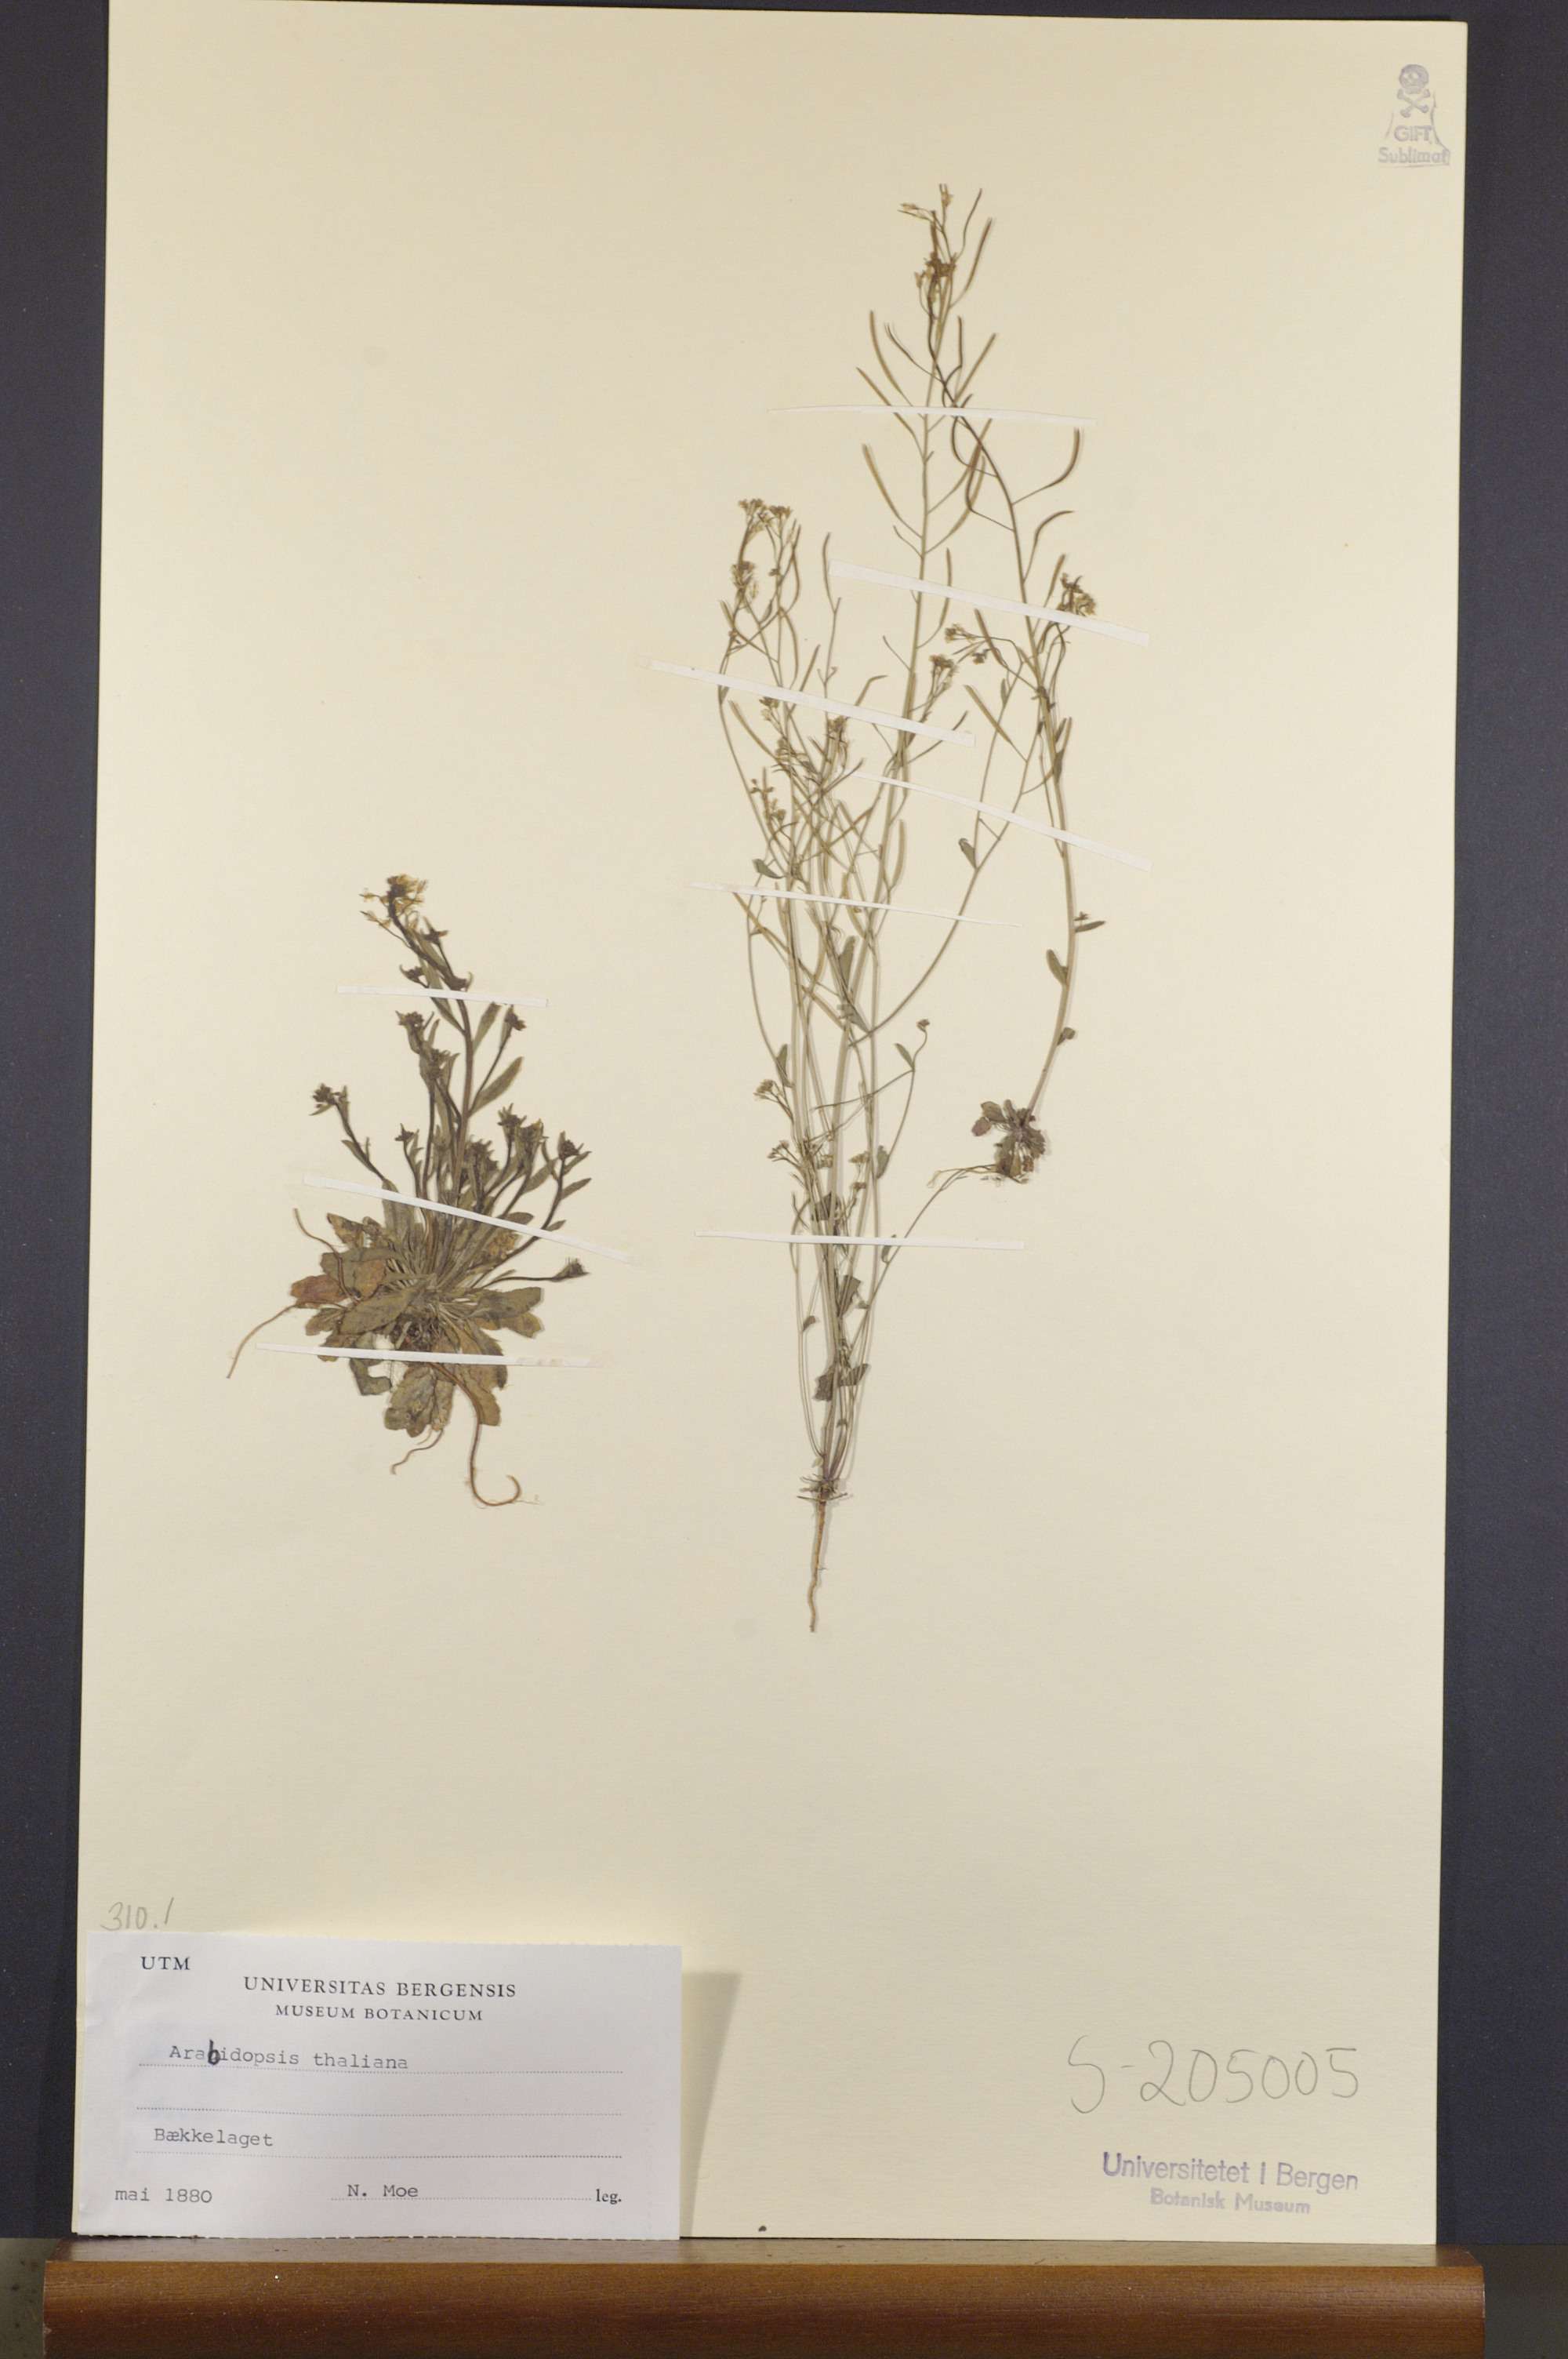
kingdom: Plantae
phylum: Tracheophyta
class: Magnoliopsida
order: Brassicales
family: Brassicaceae
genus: Arabidopsis
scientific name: Arabidopsis thaliana
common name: Thale cress
